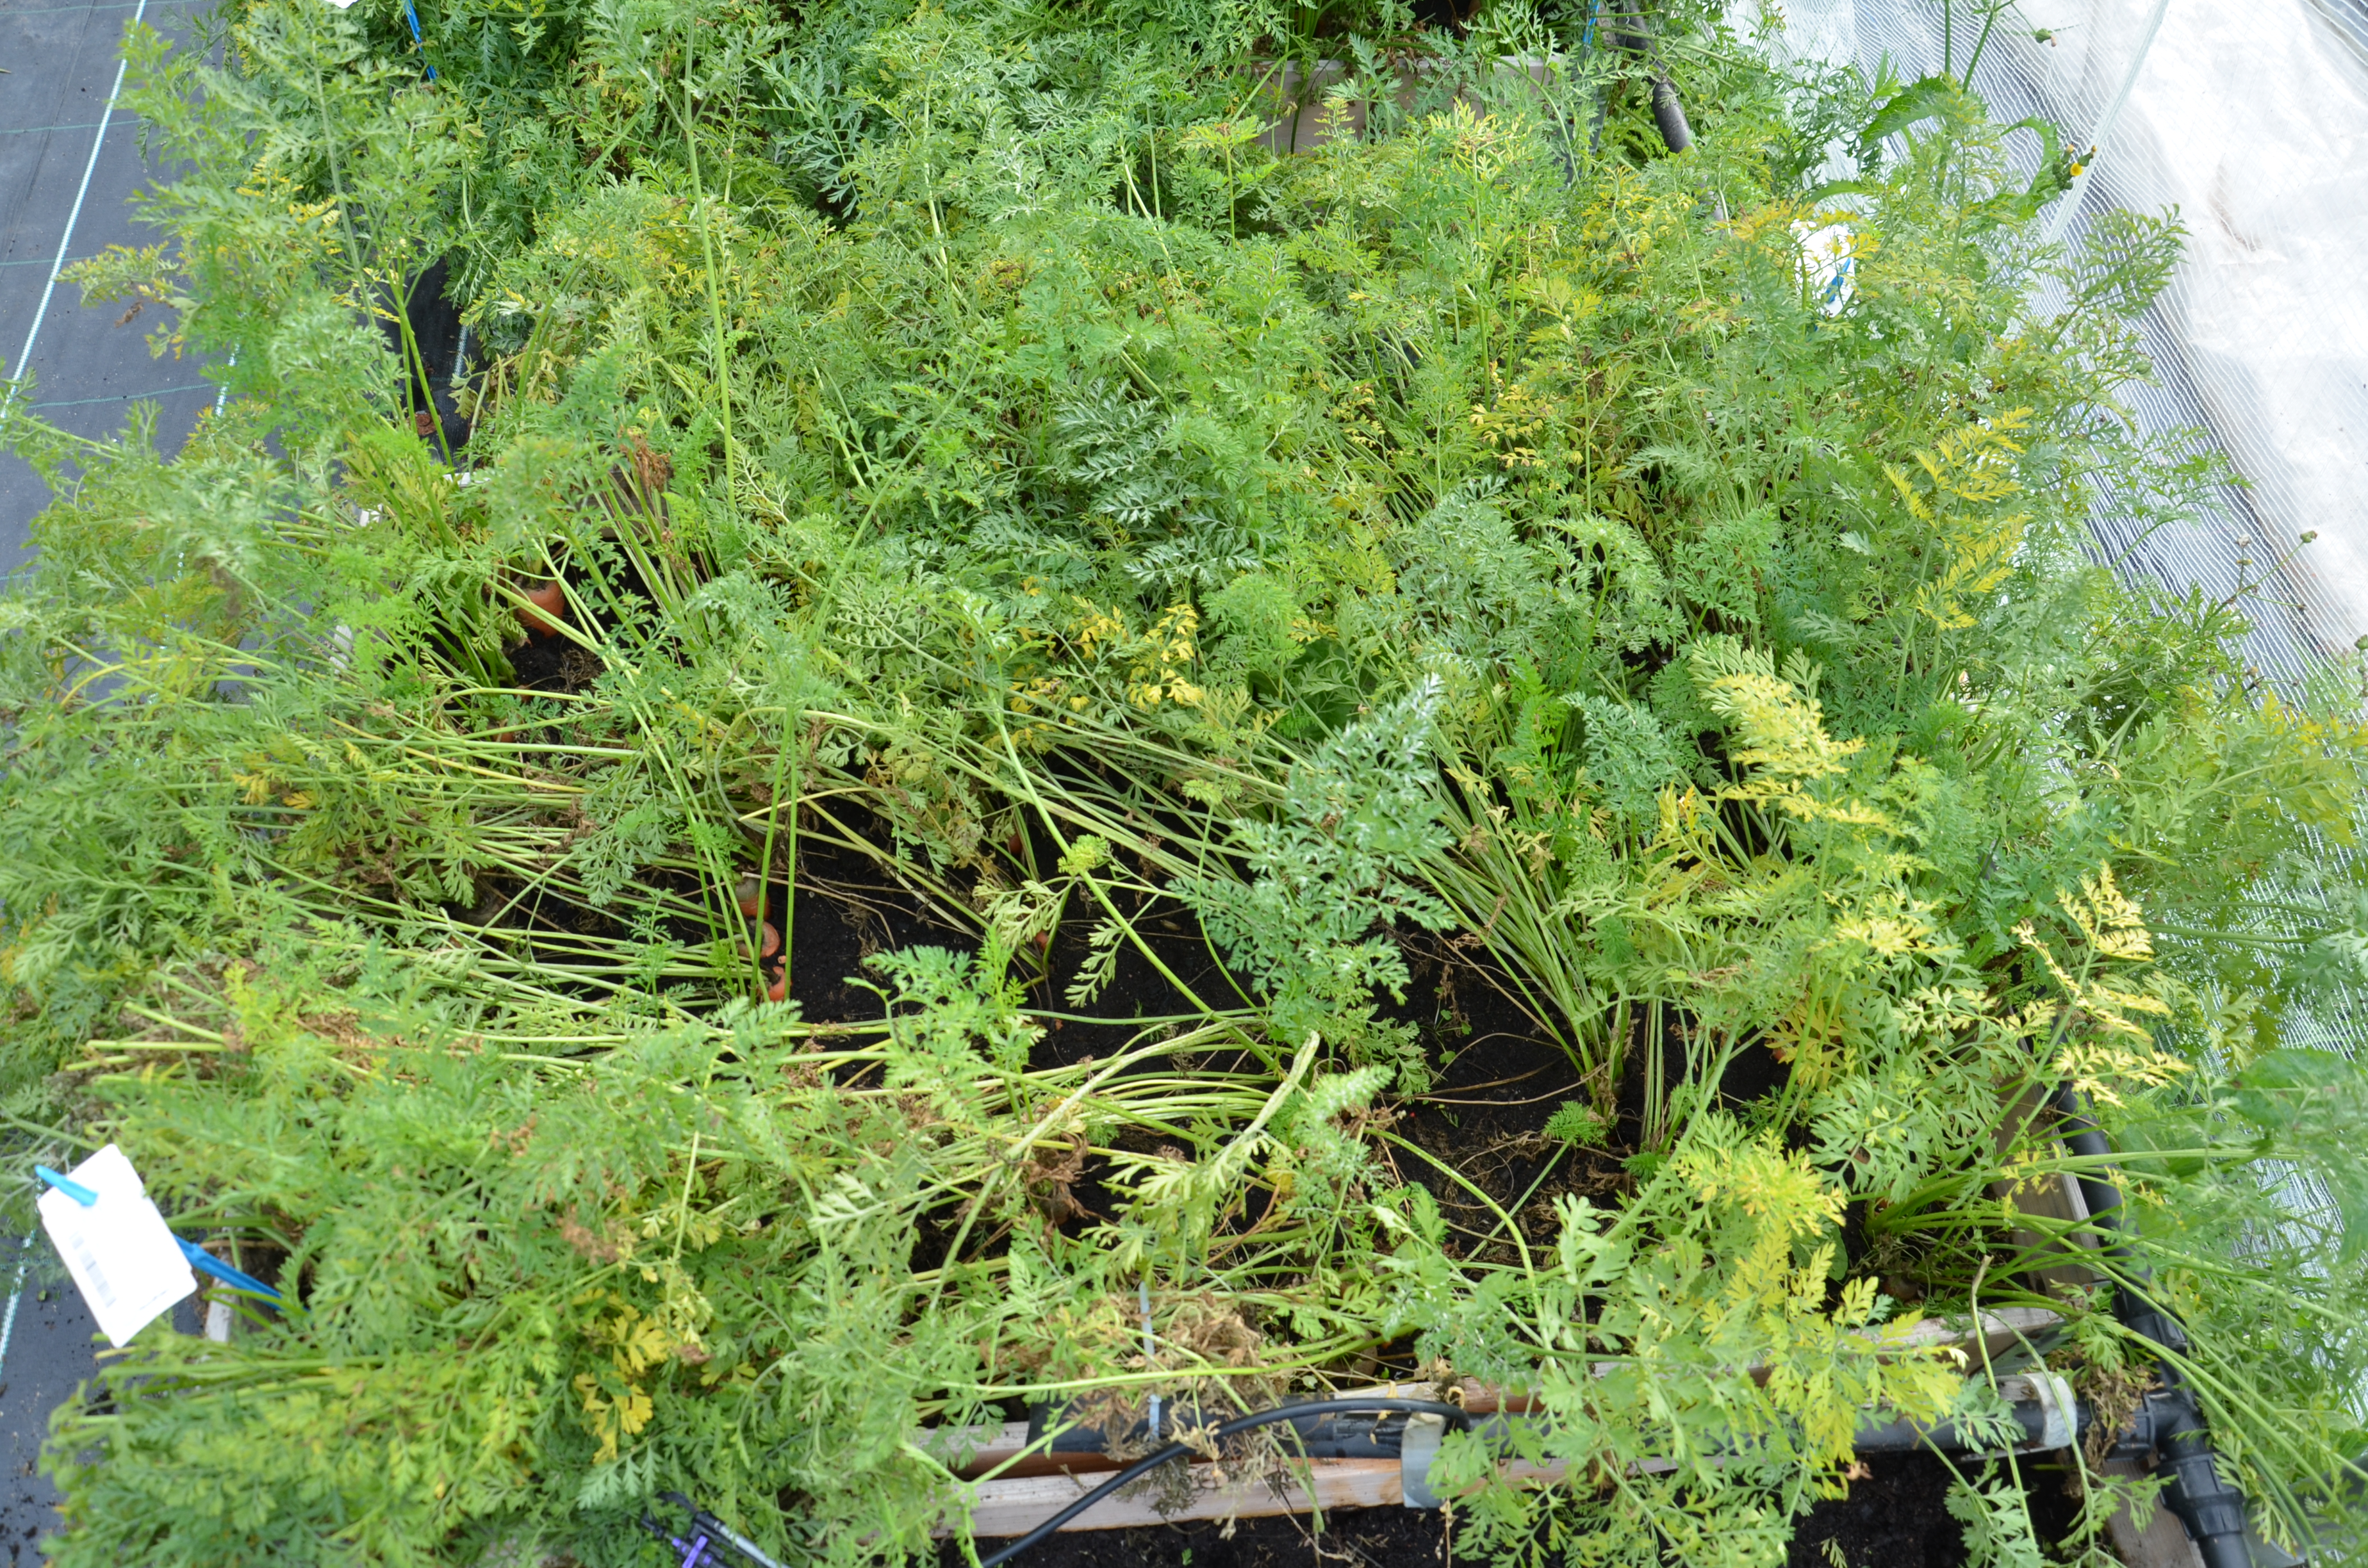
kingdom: Plantae
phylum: Tracheophyta
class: Magnoliopsida
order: Apiales
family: Apiaceae
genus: Daucus
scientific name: Daucus carota
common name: Wild carrot
